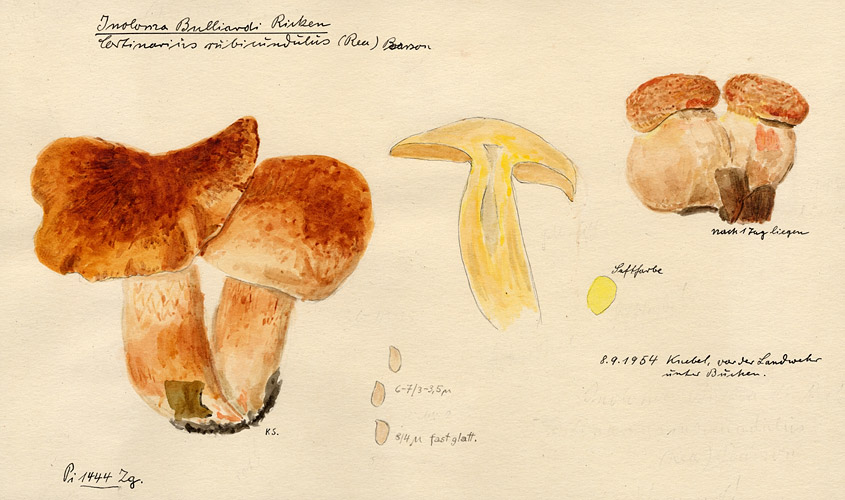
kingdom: Fungi
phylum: Basidiomycota
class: Agaricomycetes
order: Agaricales
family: Cortinariaceae
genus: Cortinarius
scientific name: Cortinarius bulliardii
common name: Hotfoot webcap
